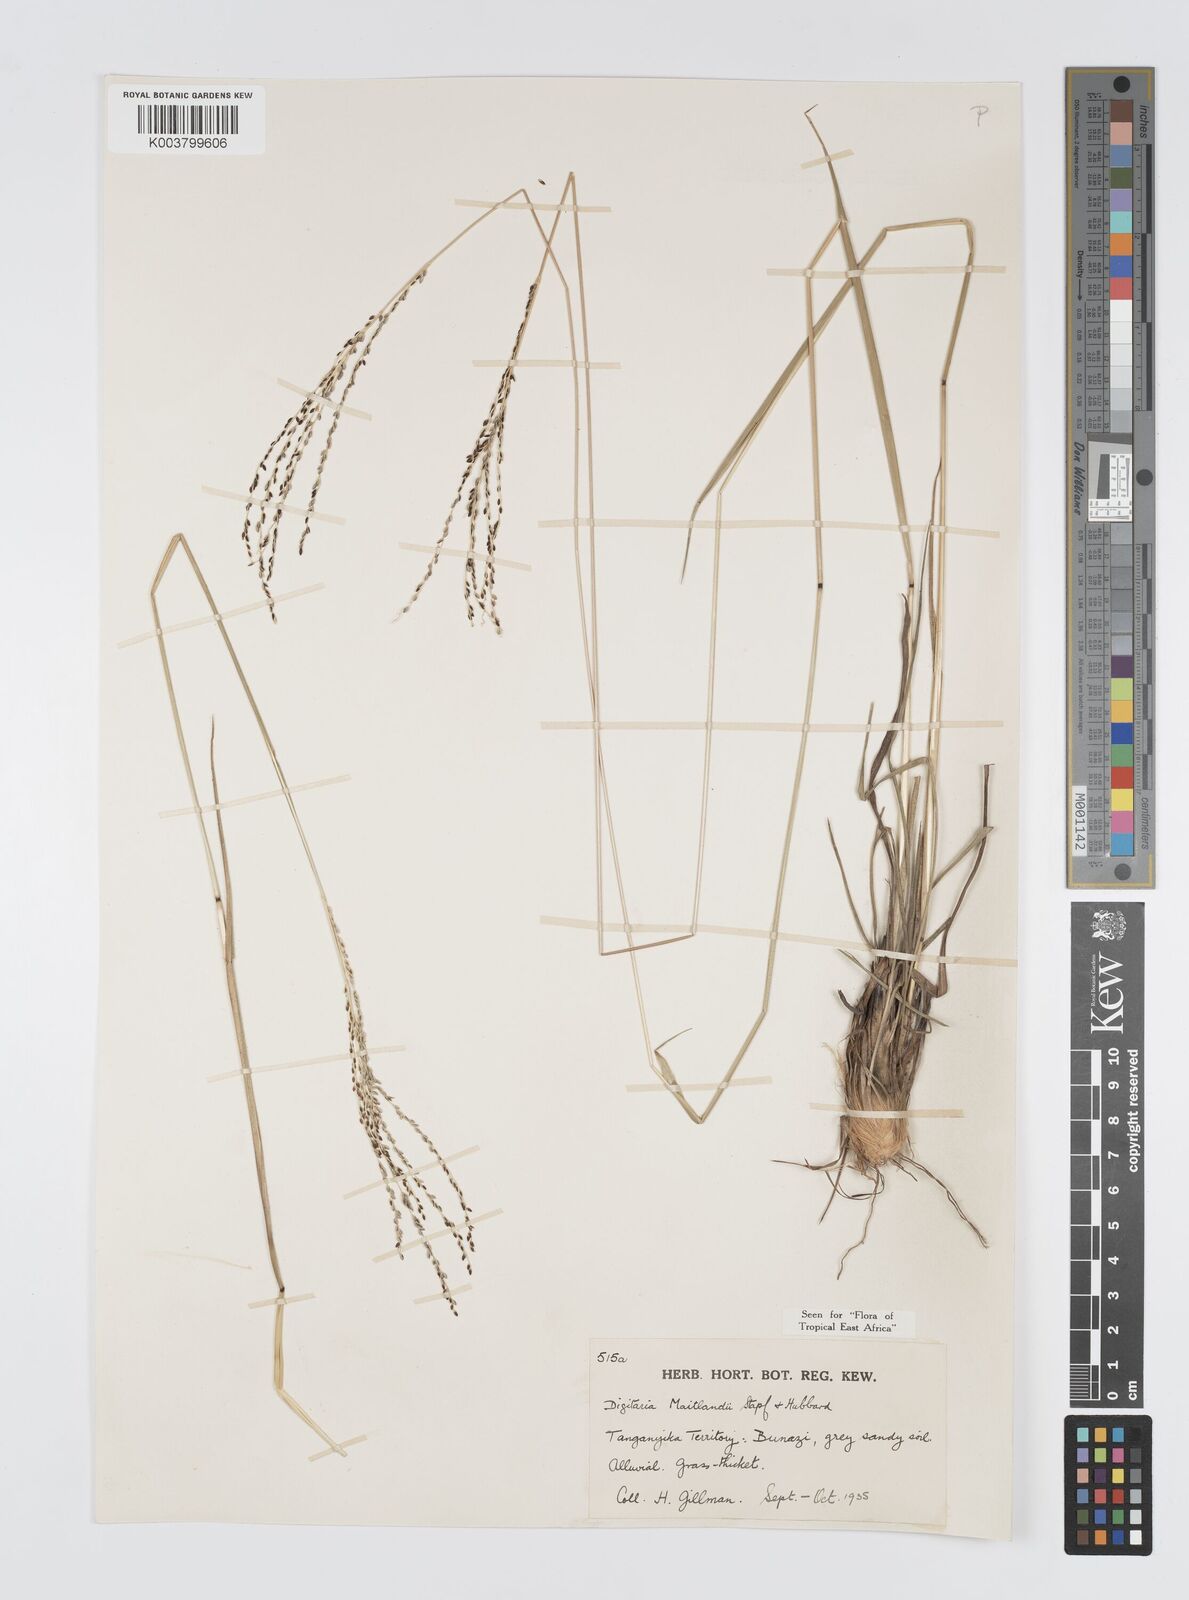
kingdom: Plantae
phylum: Tracheophyta
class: Liliopsida
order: Poales
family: Poaceae
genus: Digitaria
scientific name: Digitaria maitlandii
